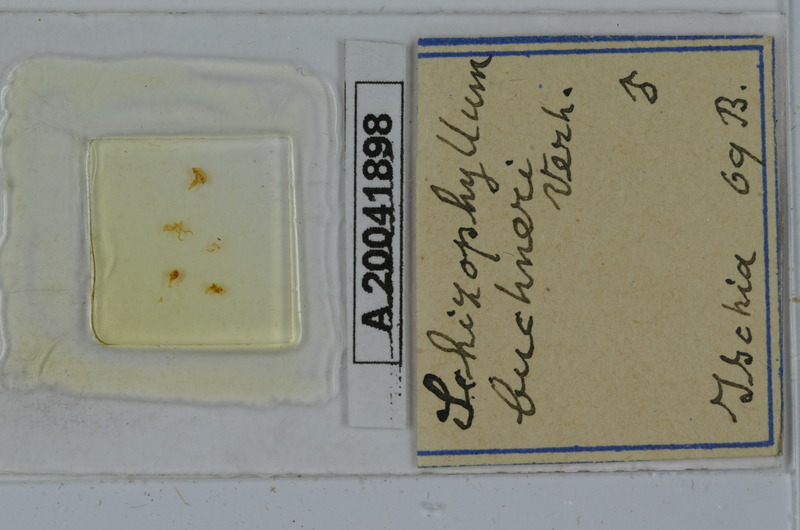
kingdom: Animalia
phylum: Arthropoda
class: Diplopoda
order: Julida
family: Julidae
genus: Schizophyllum
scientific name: Schizophyllum buchneri
